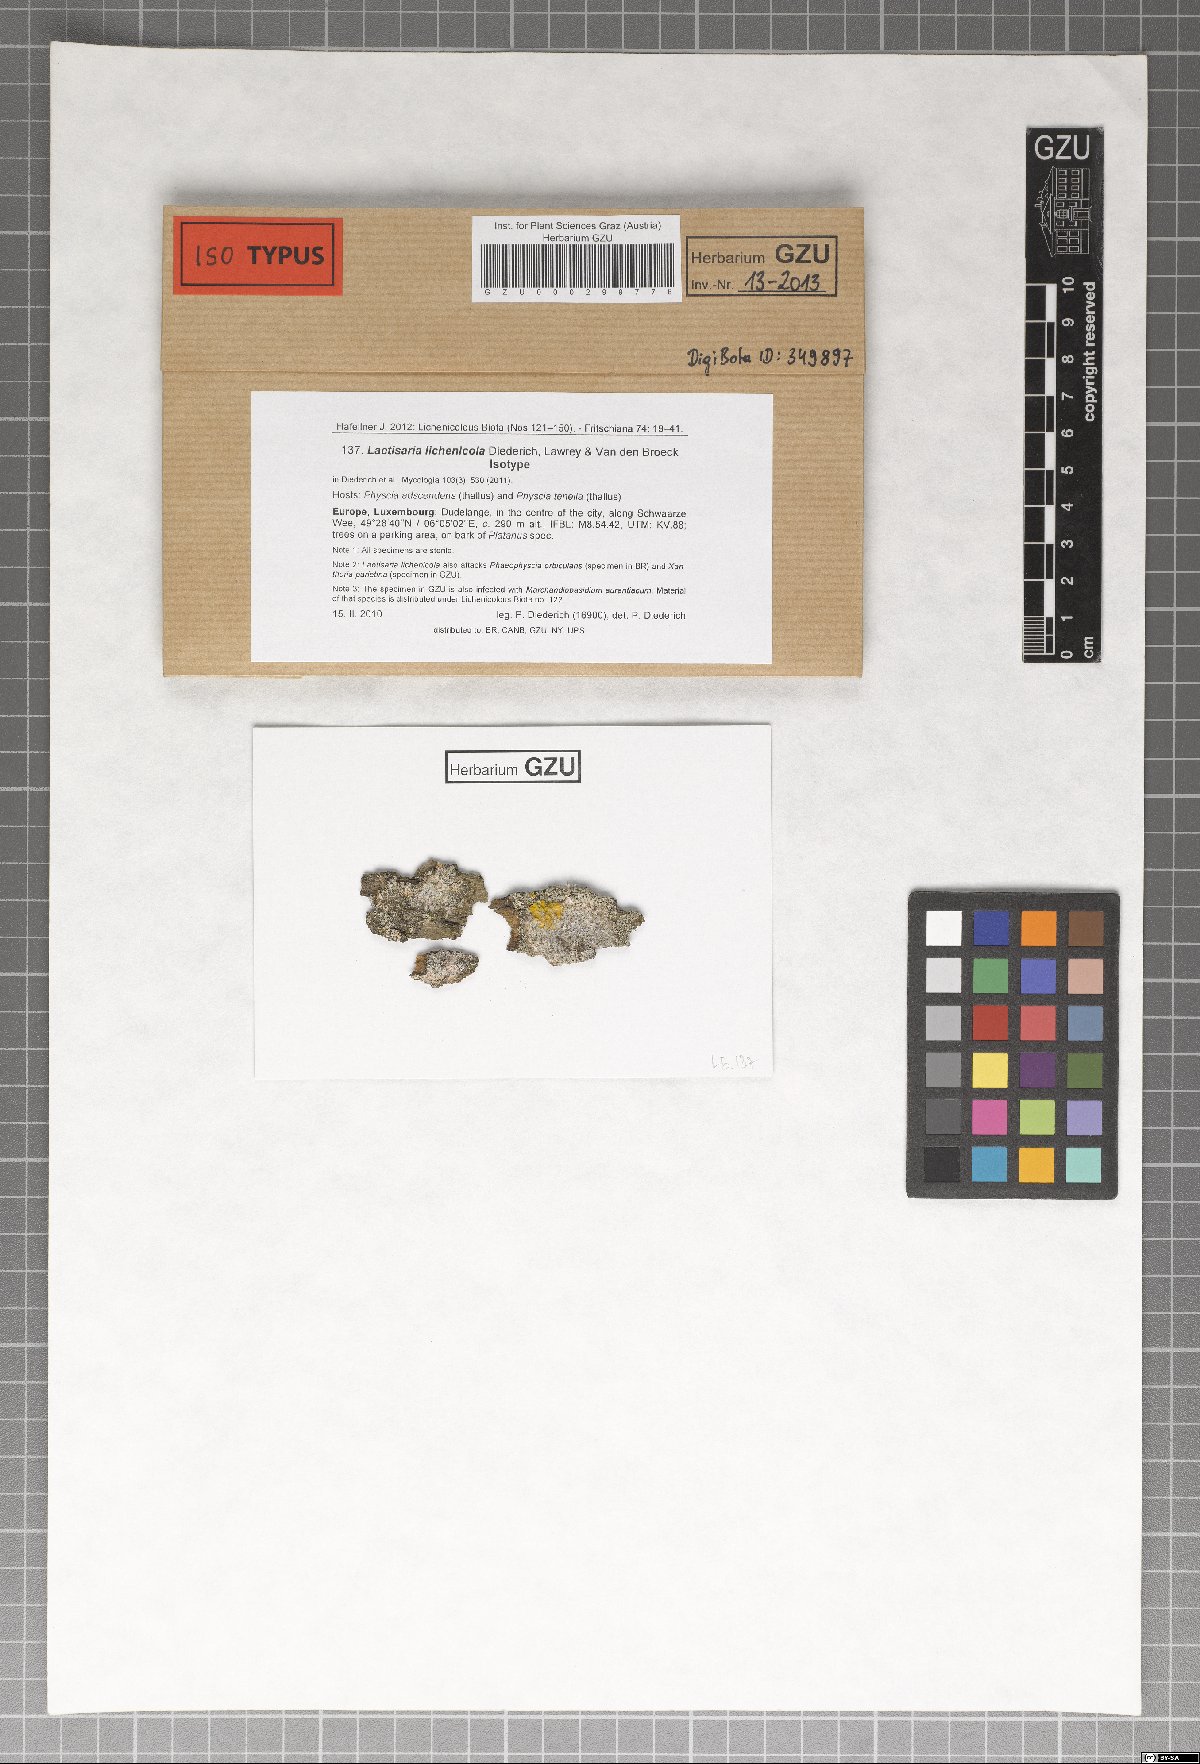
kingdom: Fungi
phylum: Basidiomycota
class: Agaricomycetes
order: Corticiales
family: Corticiaceae
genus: Laetisaria
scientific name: Laetisaria lichenicola
